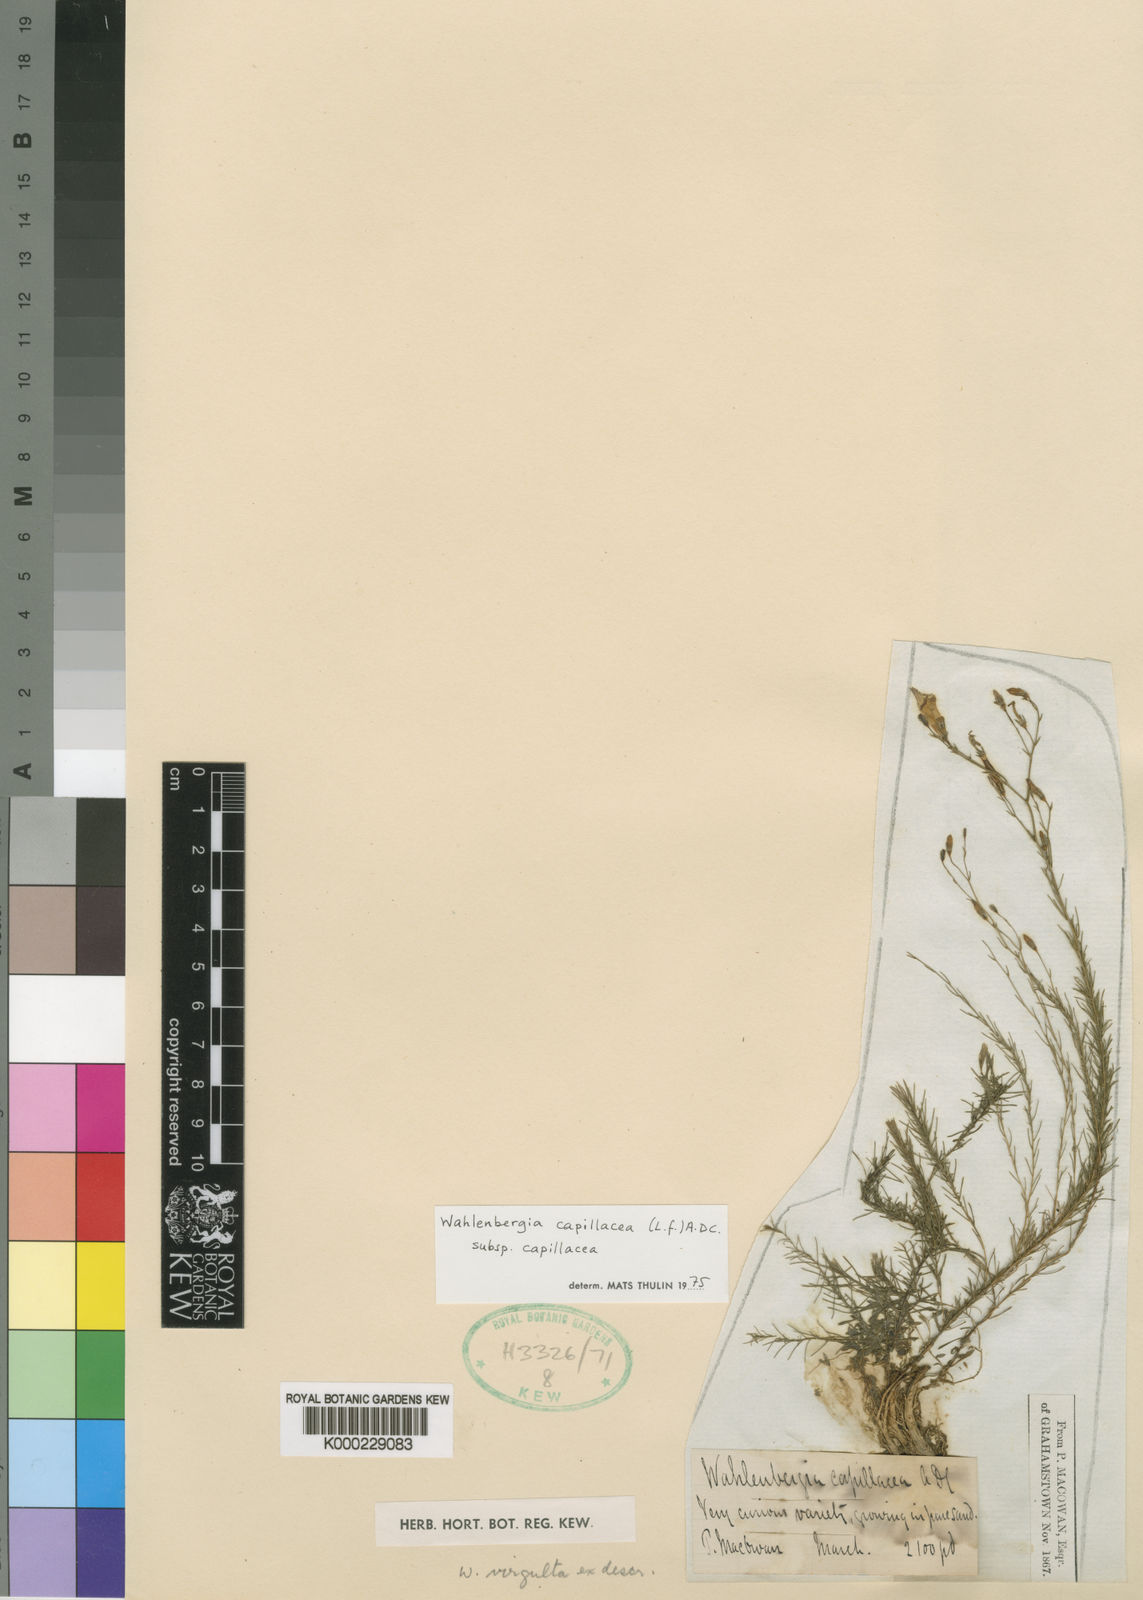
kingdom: Plantae
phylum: Tracheophyta
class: Magnoliopsida
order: Asterales
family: Campanulaceae
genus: Wahlenbergia
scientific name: Wahlenbergia capillacea
